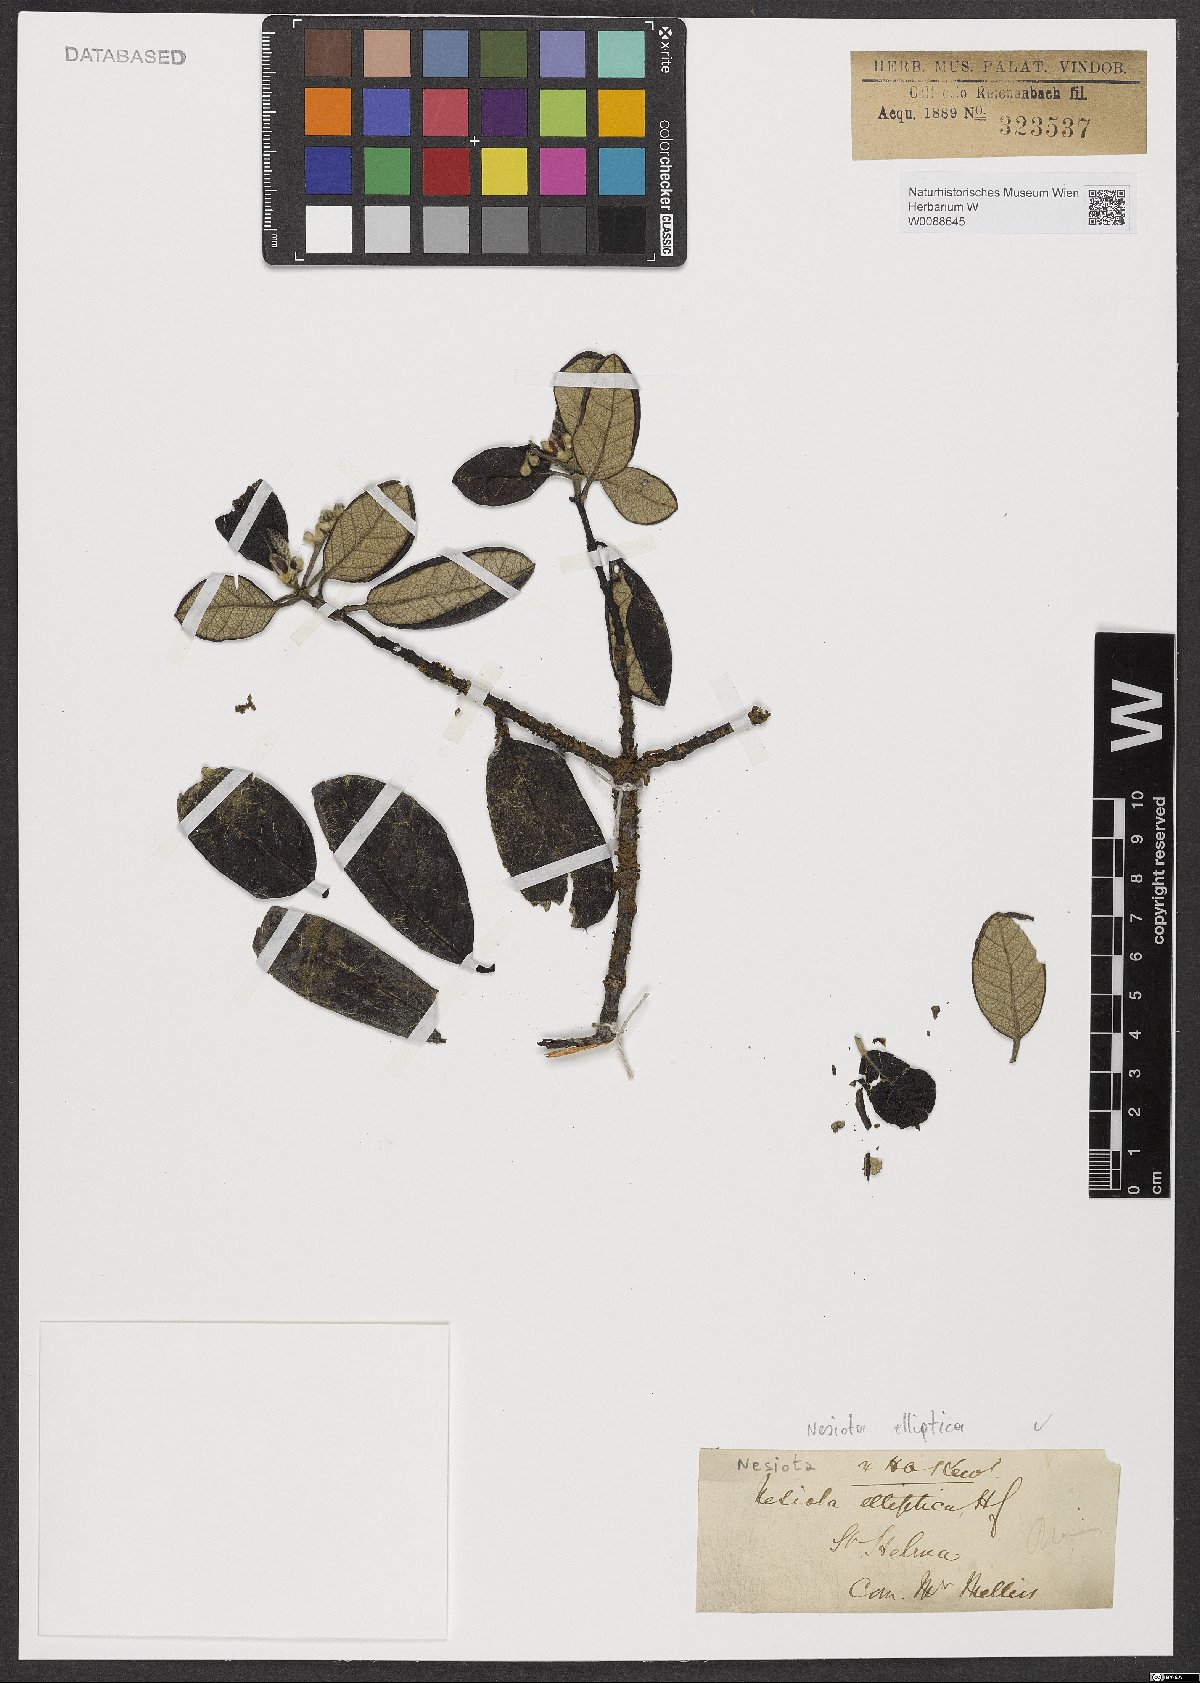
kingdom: Plantae
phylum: Tracheophyta
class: Magnoliopsida
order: Rosales
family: Rhamnaceae
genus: Nesiota
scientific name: Nesiota elliptica
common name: St helena olive
